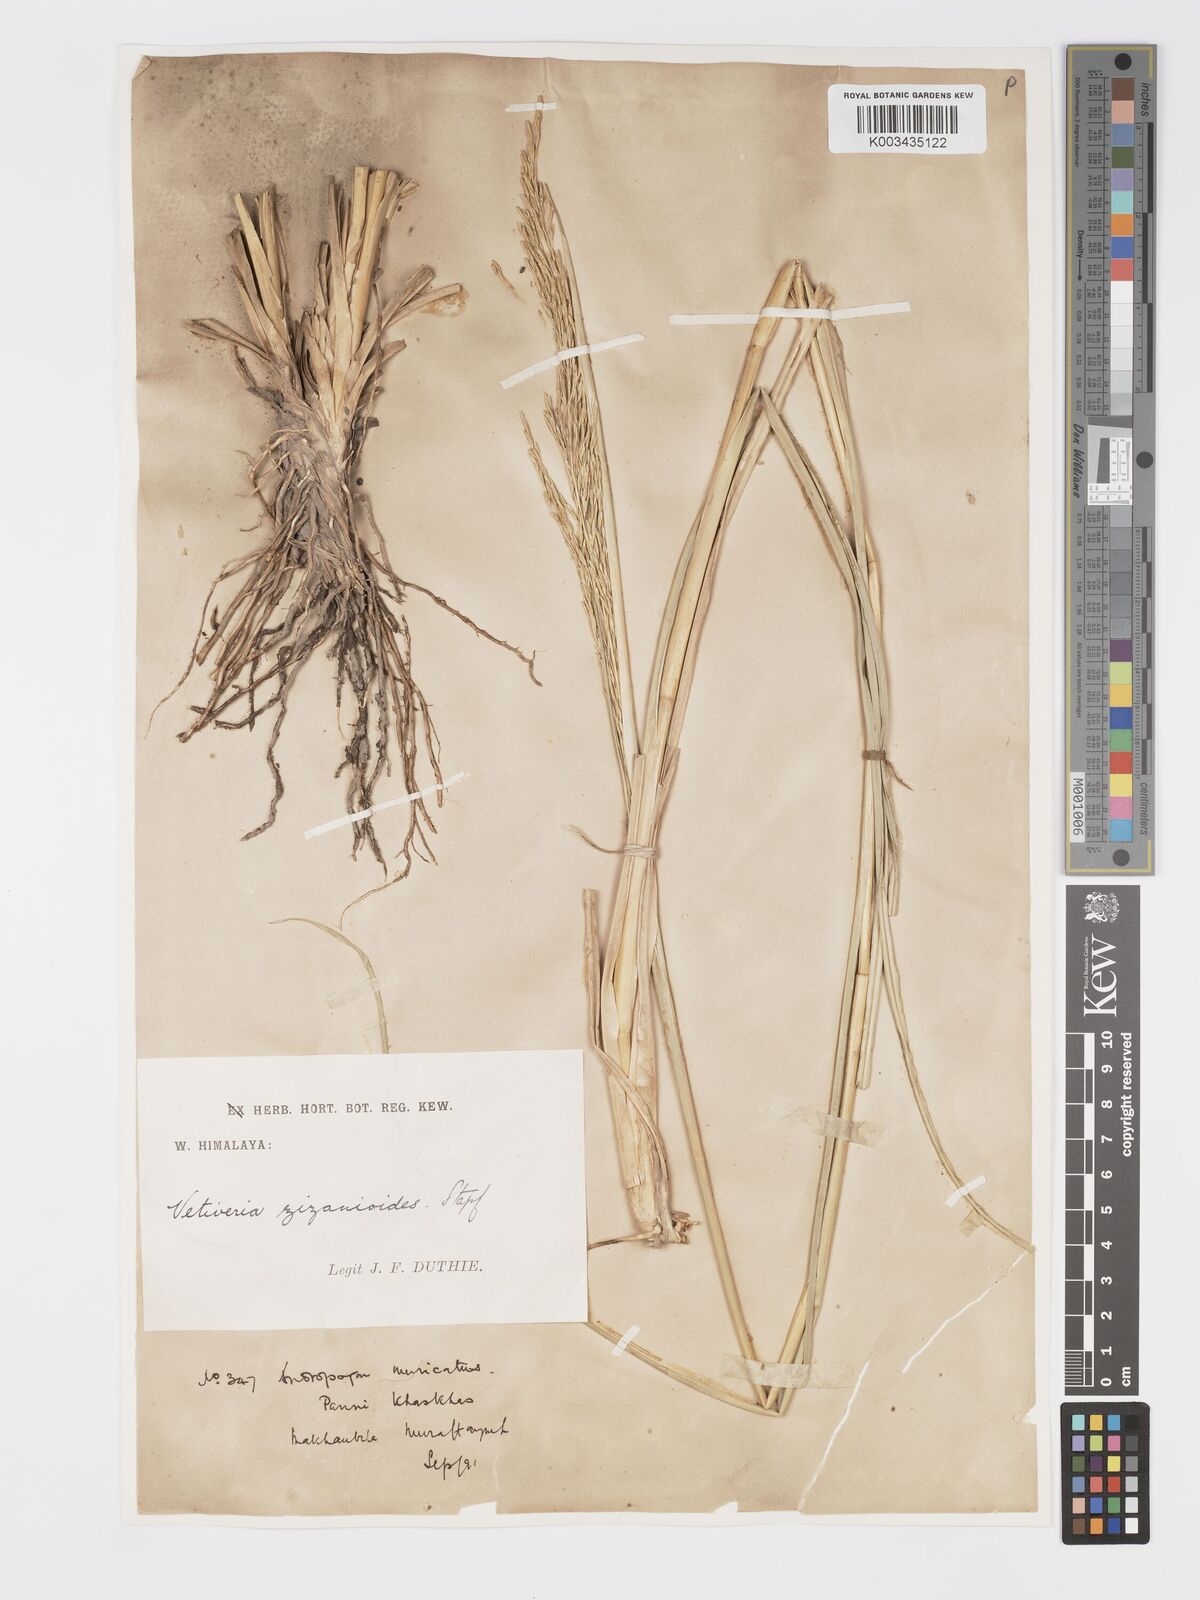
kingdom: Plantae
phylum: Tracheophyta
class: Liliopsida
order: Poales
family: Poaceae
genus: Chrysopogon
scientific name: Chrysopogon zizanioides
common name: False beardgrass
